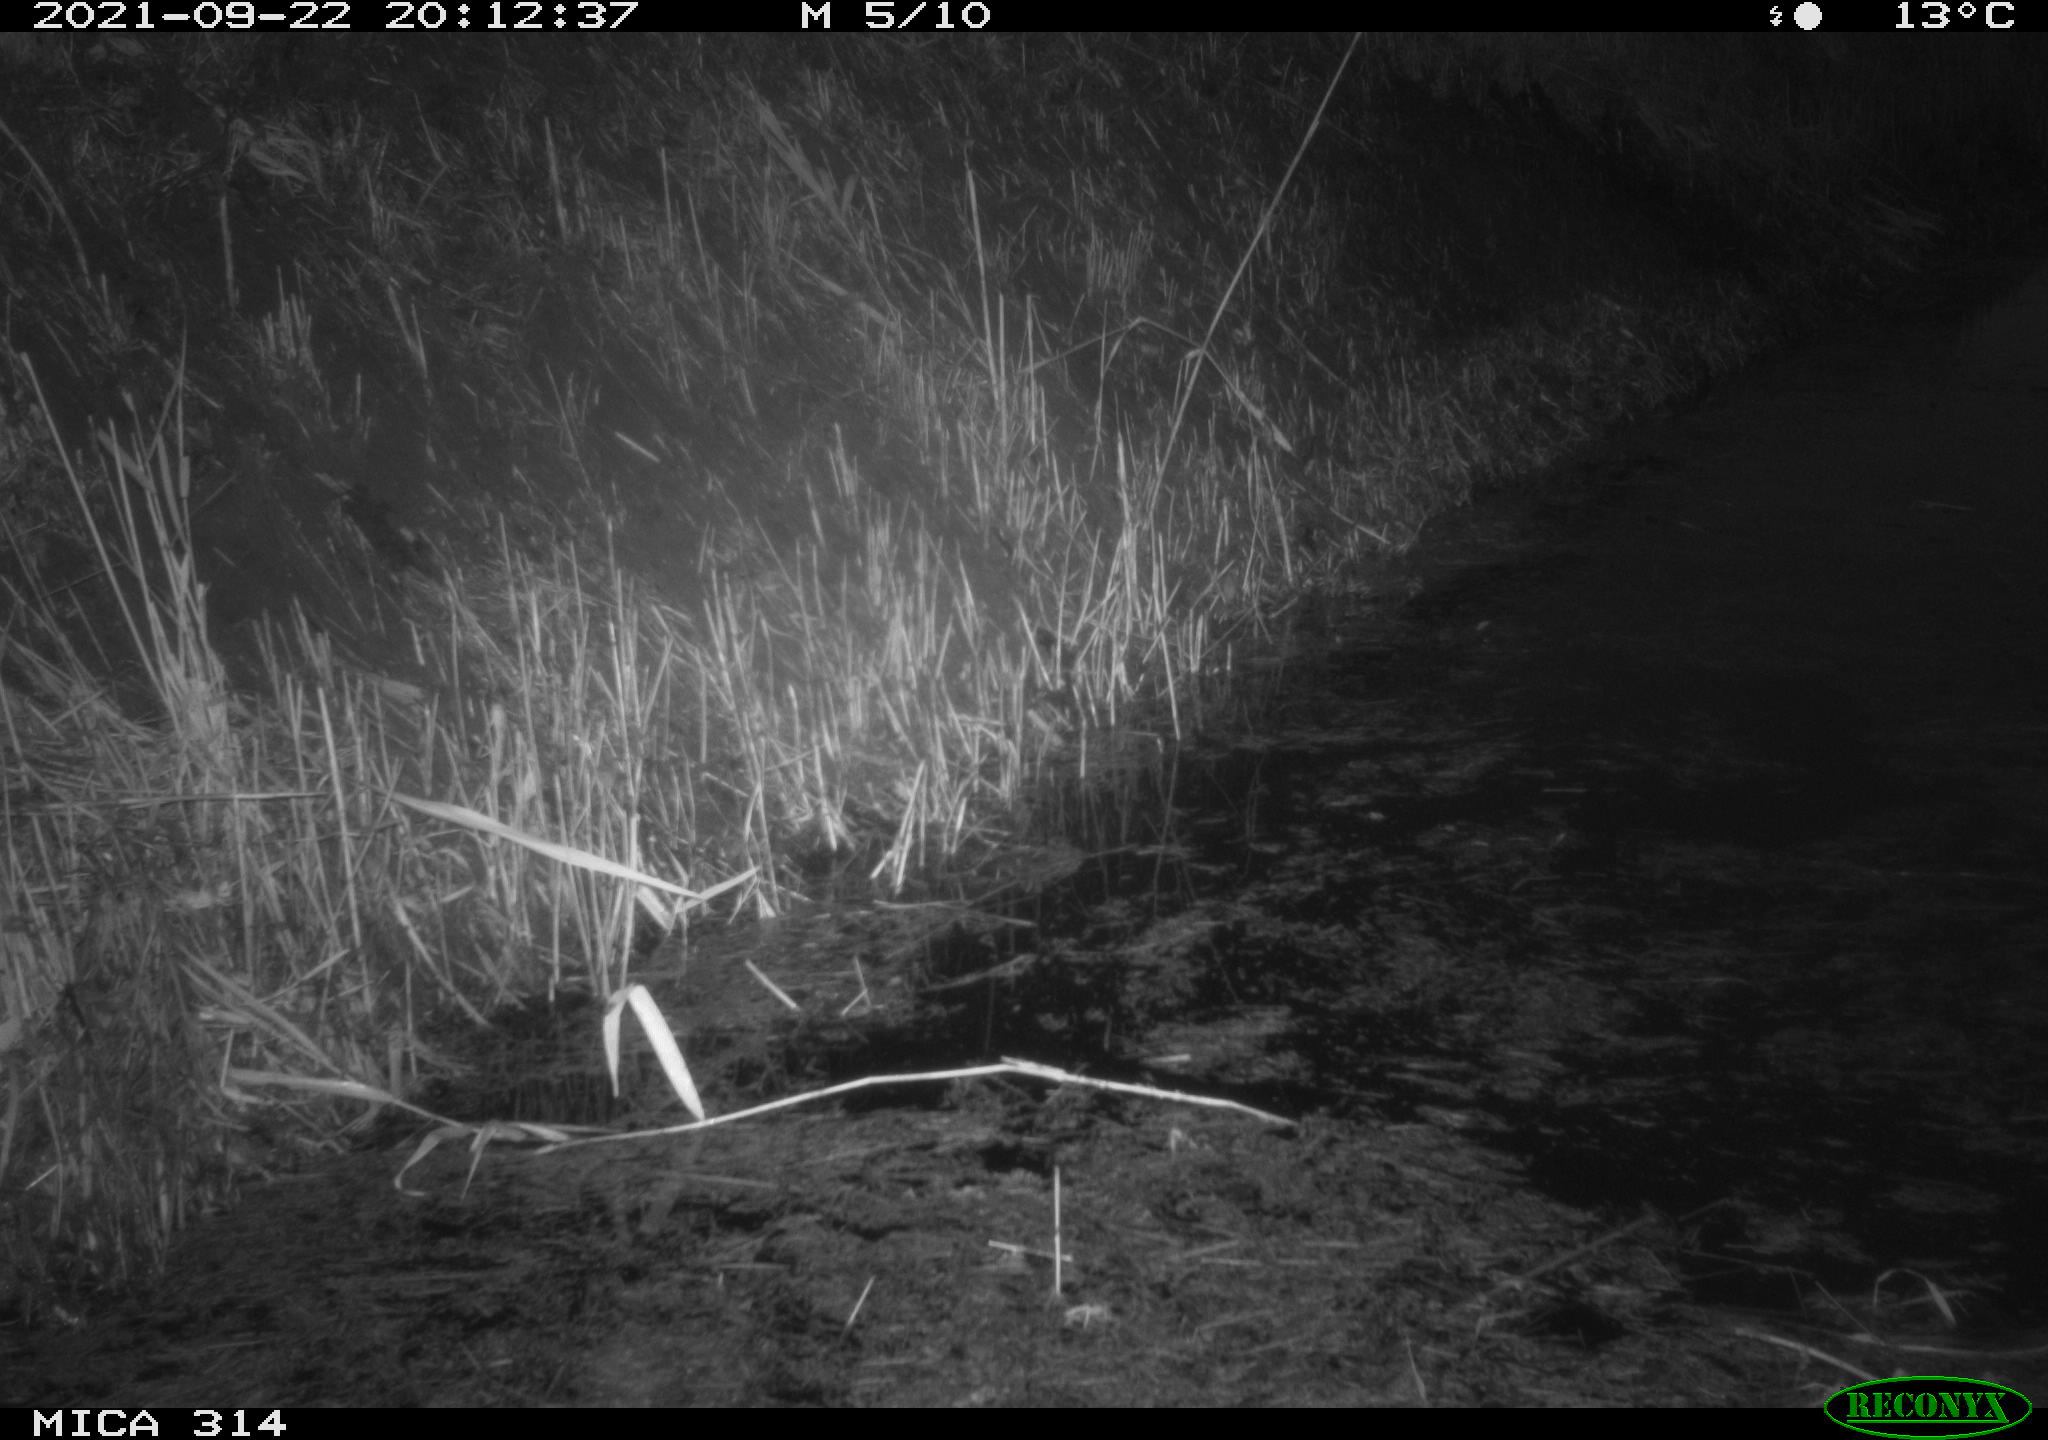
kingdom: Animalia
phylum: Chordata
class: Mammalia
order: Rodentia
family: Muridae
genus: Rattus
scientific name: Rattus norvegicus
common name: Brown rat
